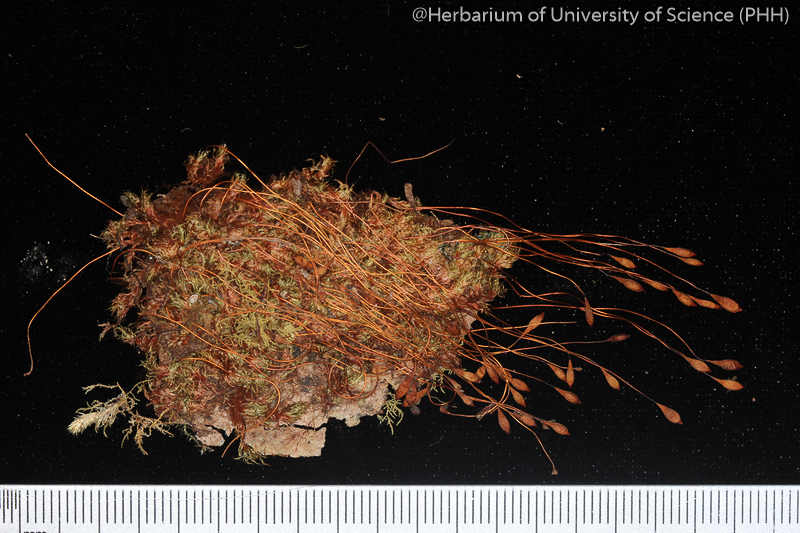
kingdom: Plantae
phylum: Bryophyta
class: Bryopsida
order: Bryales
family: Bryaceae
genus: Brachymenium
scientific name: Brachymenium nepalense
